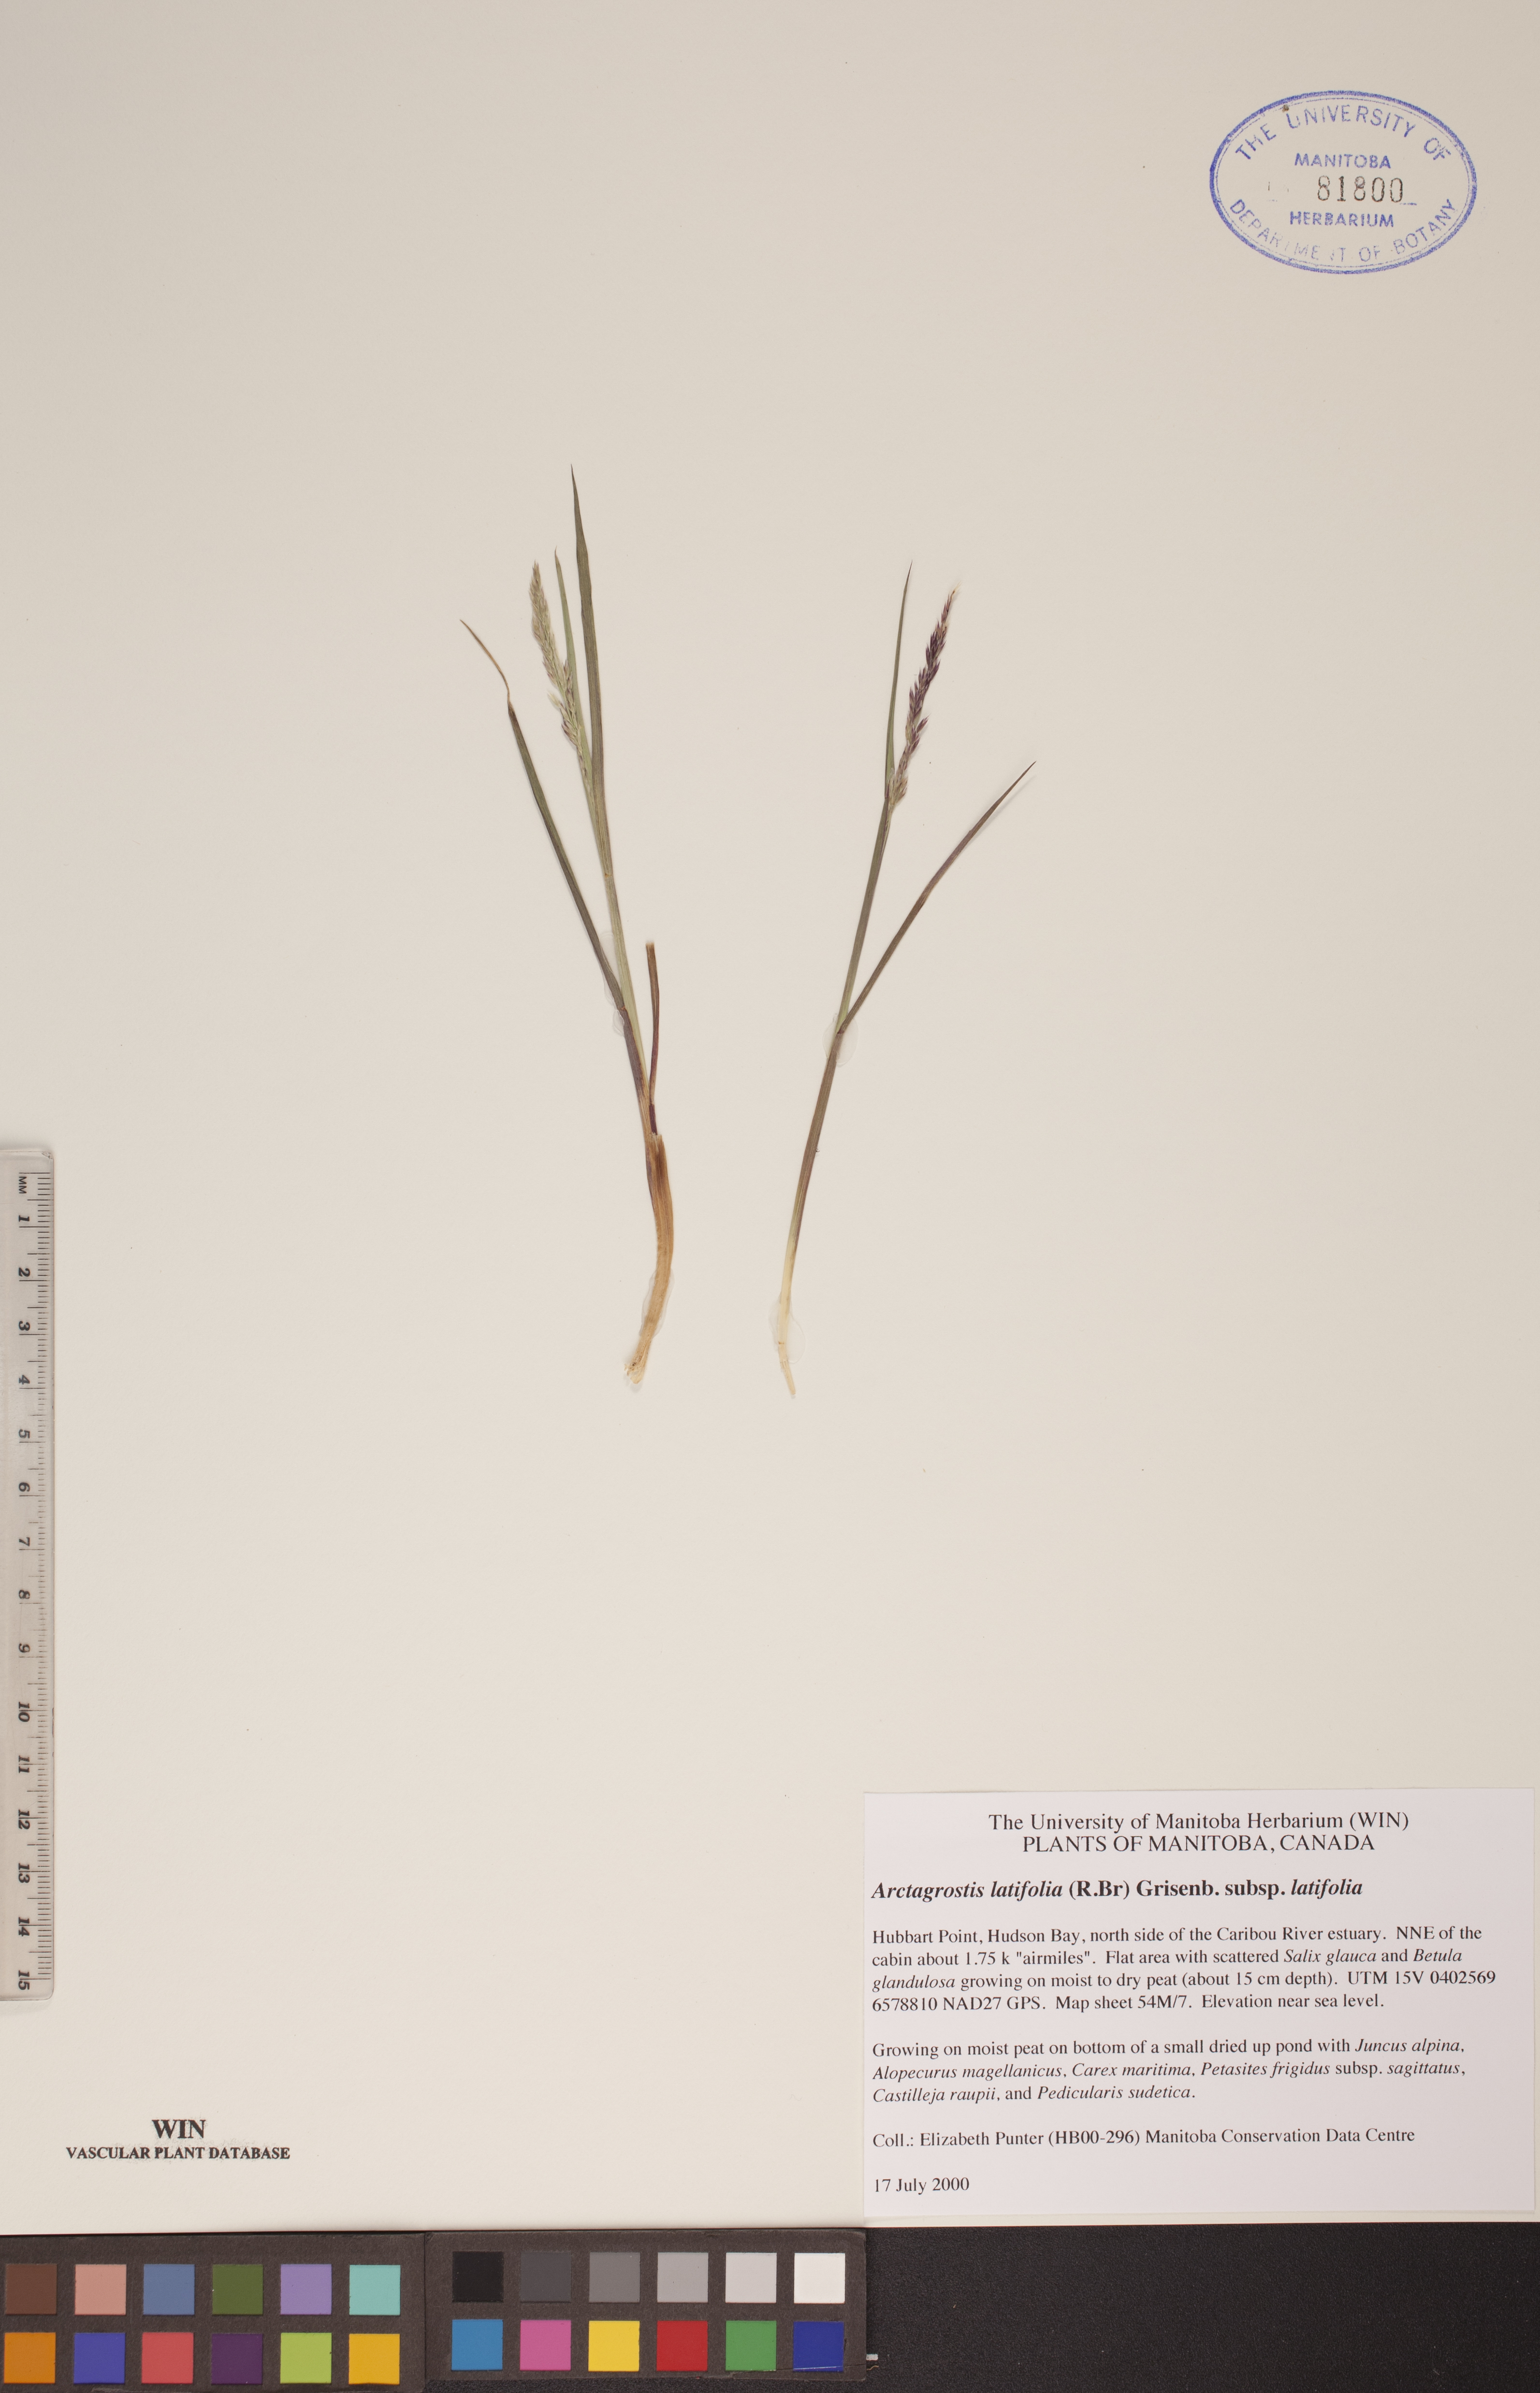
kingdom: Plantae
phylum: Tracheophyta
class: Liliopsida
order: Poales
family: Poaceae
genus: Arctagrostis
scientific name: Arctagrostis latifolia
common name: Arctic grass
